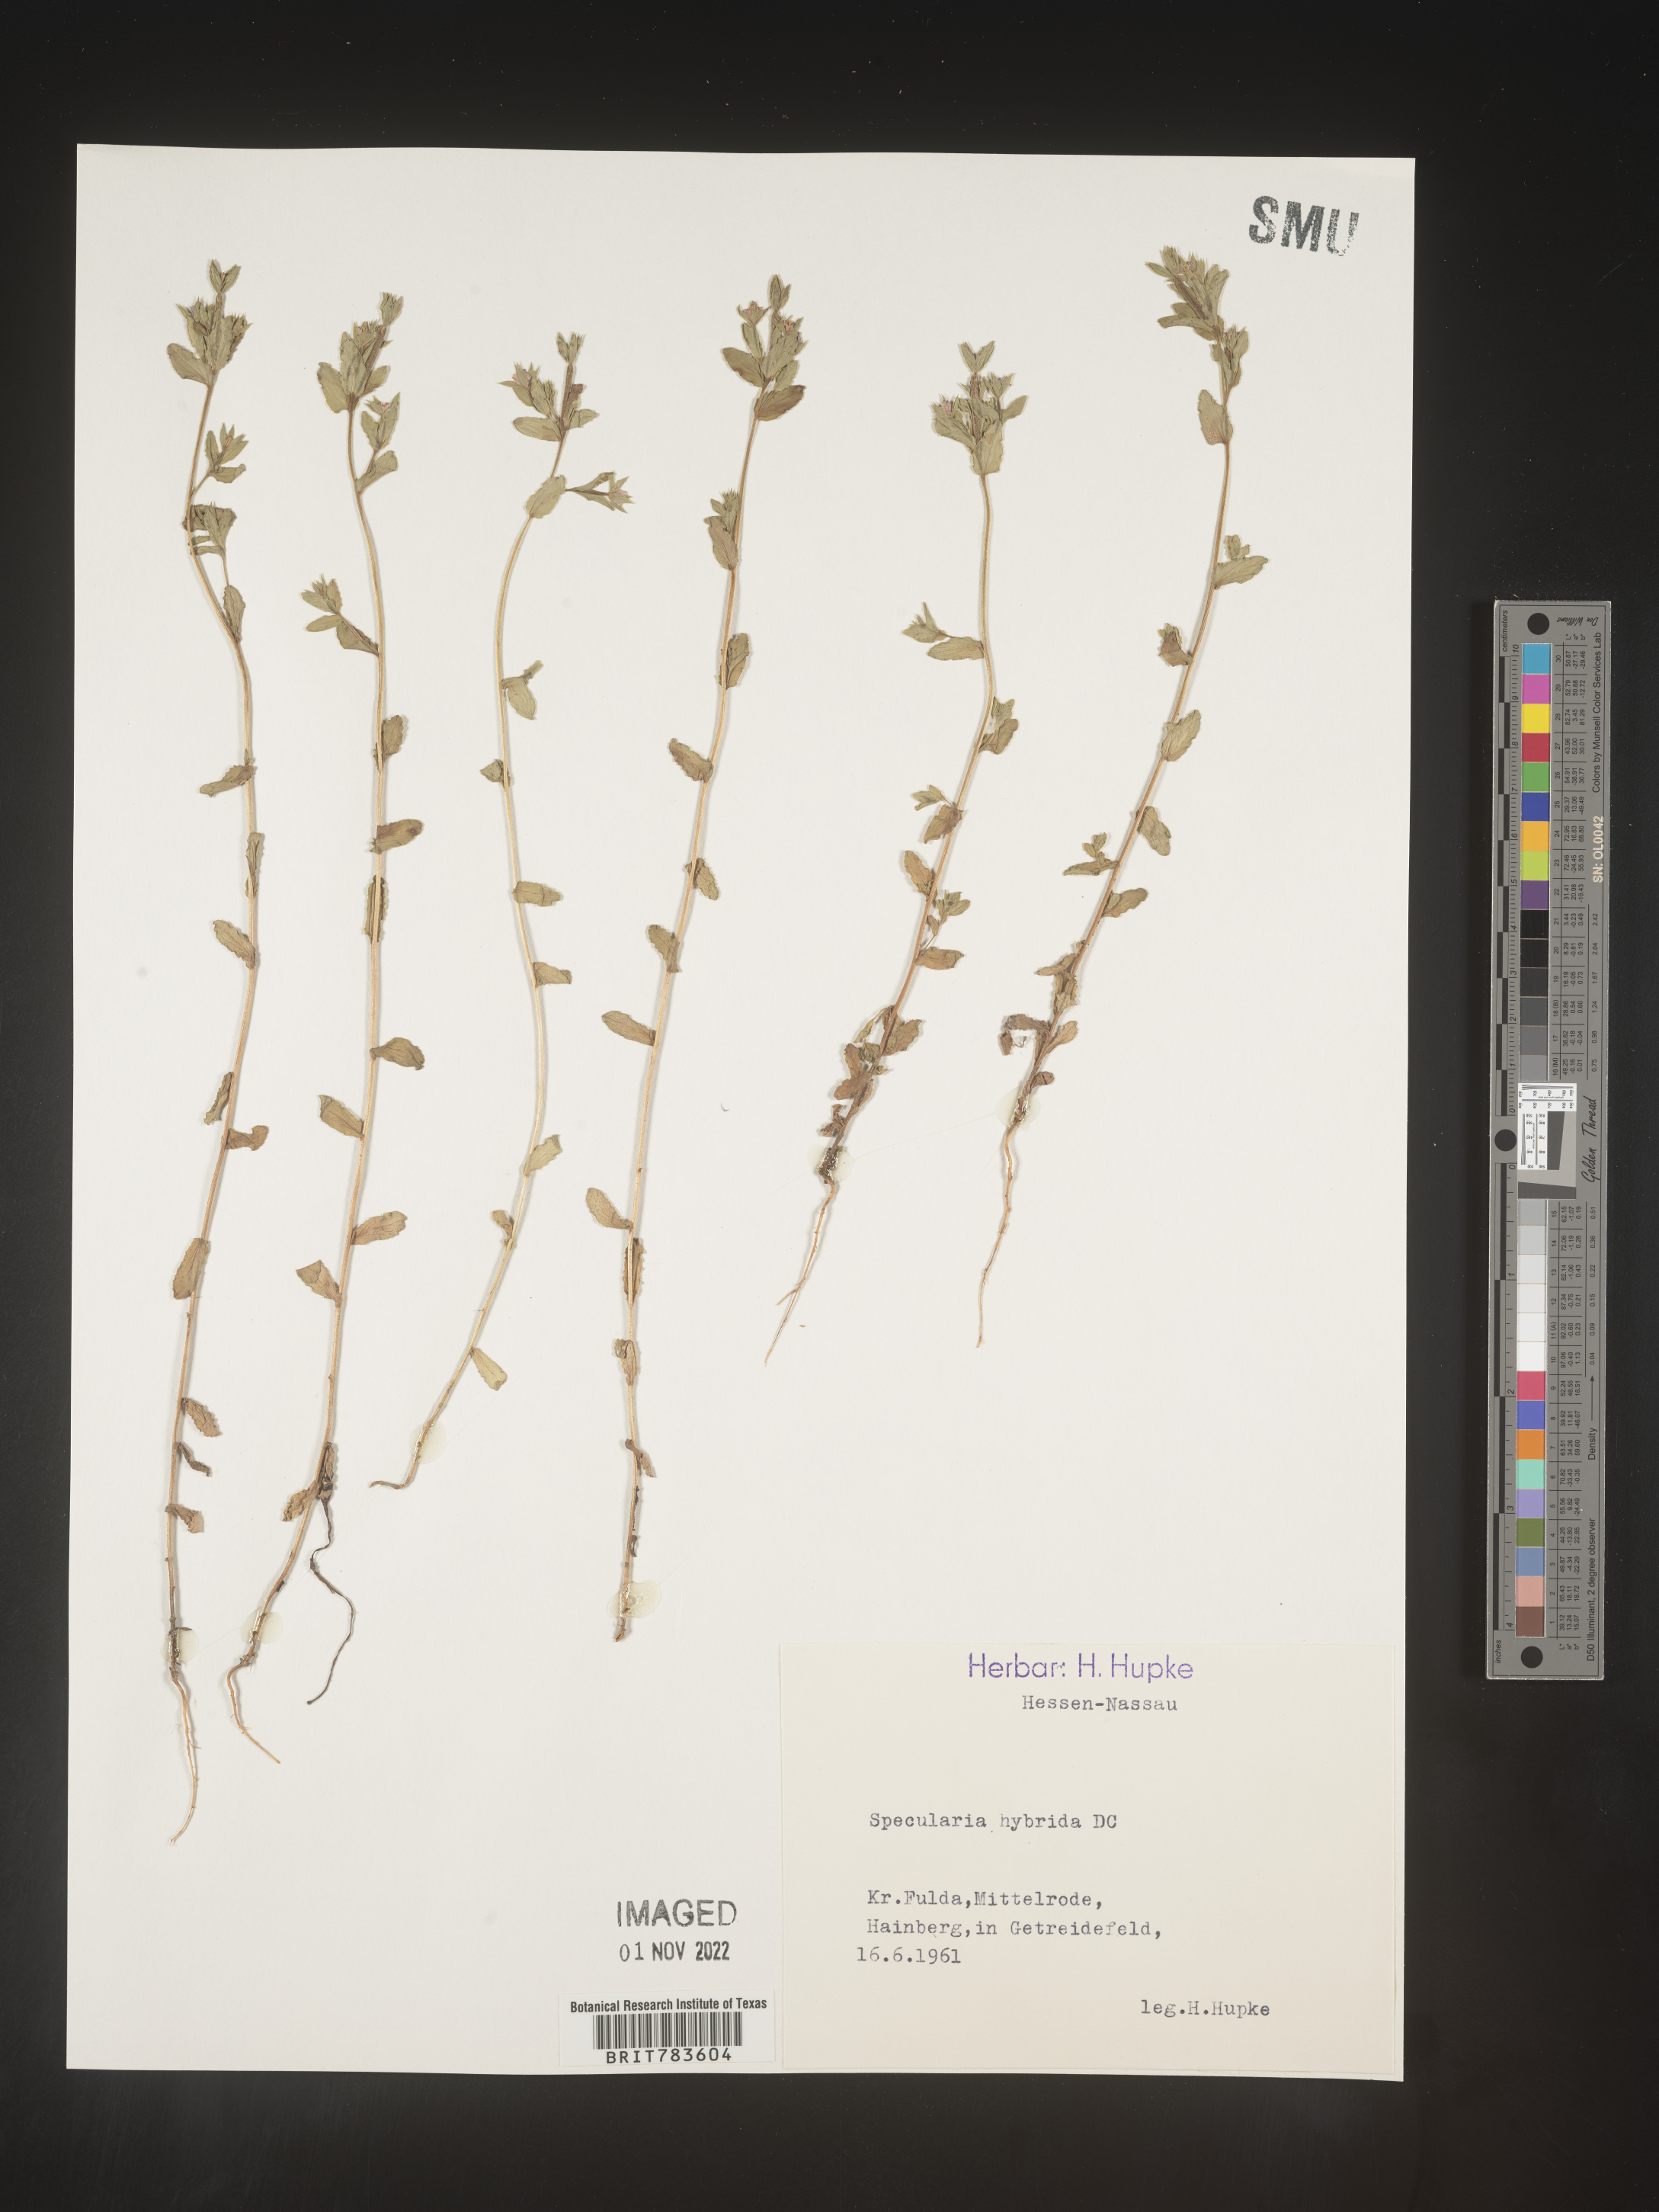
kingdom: Plantae
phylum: Tracheophyta
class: Magnoliopsida
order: Asterales
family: Campanulaceae
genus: Specularia
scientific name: Specularia
